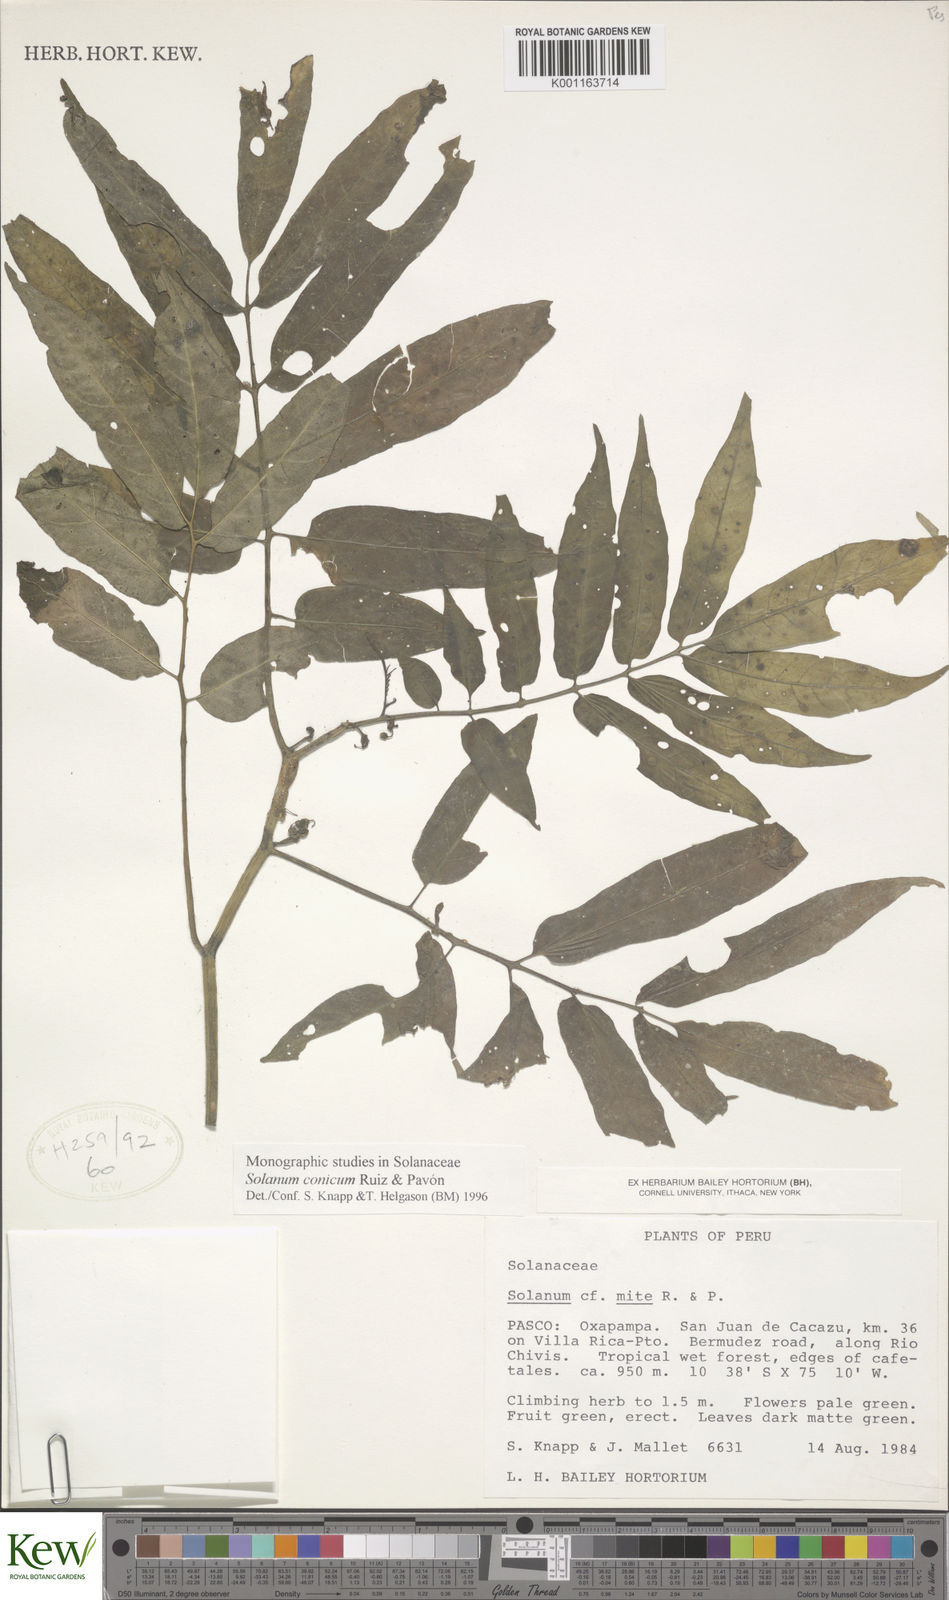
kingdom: Plantae
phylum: Tracheophyta
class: Magnoliopsida
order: Solanales
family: Solanaceae
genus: Solanum
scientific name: Solanum conicum
